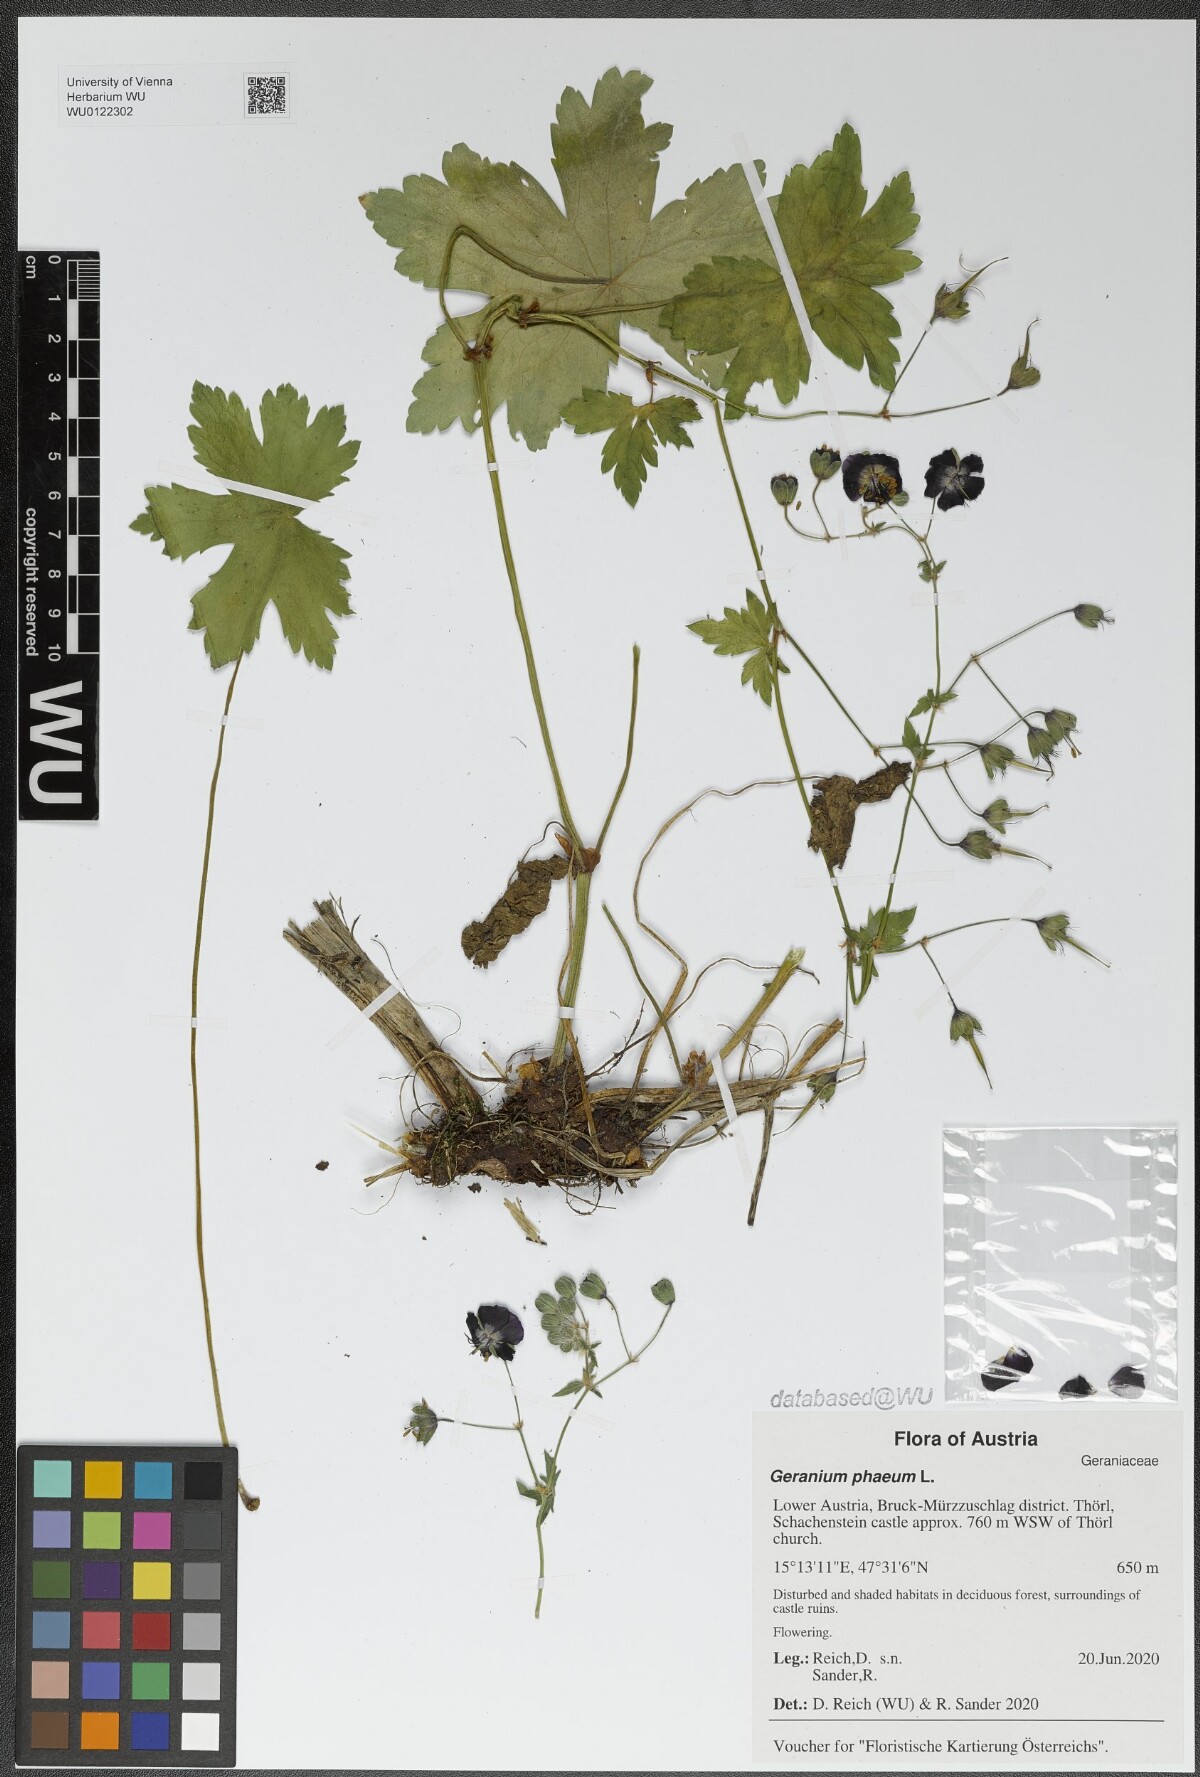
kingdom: Plantae
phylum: Tracheophyta
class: Magnoliopsida
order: Geraniales
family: Geraniaceae
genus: Geranium
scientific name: Geranium phaeum
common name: Dusky crane's-bill
